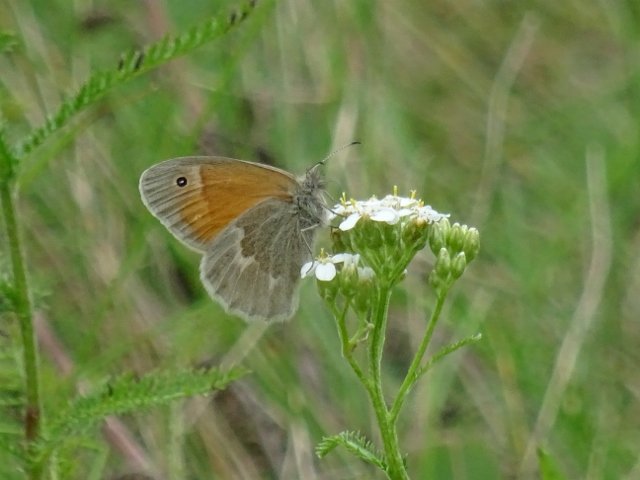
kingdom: Animalia
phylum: Arthropoda
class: Insecta
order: Lepidoptera
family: Nymphalidae
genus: Coenonympha
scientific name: Coenonympha tullia
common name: Large Heath
